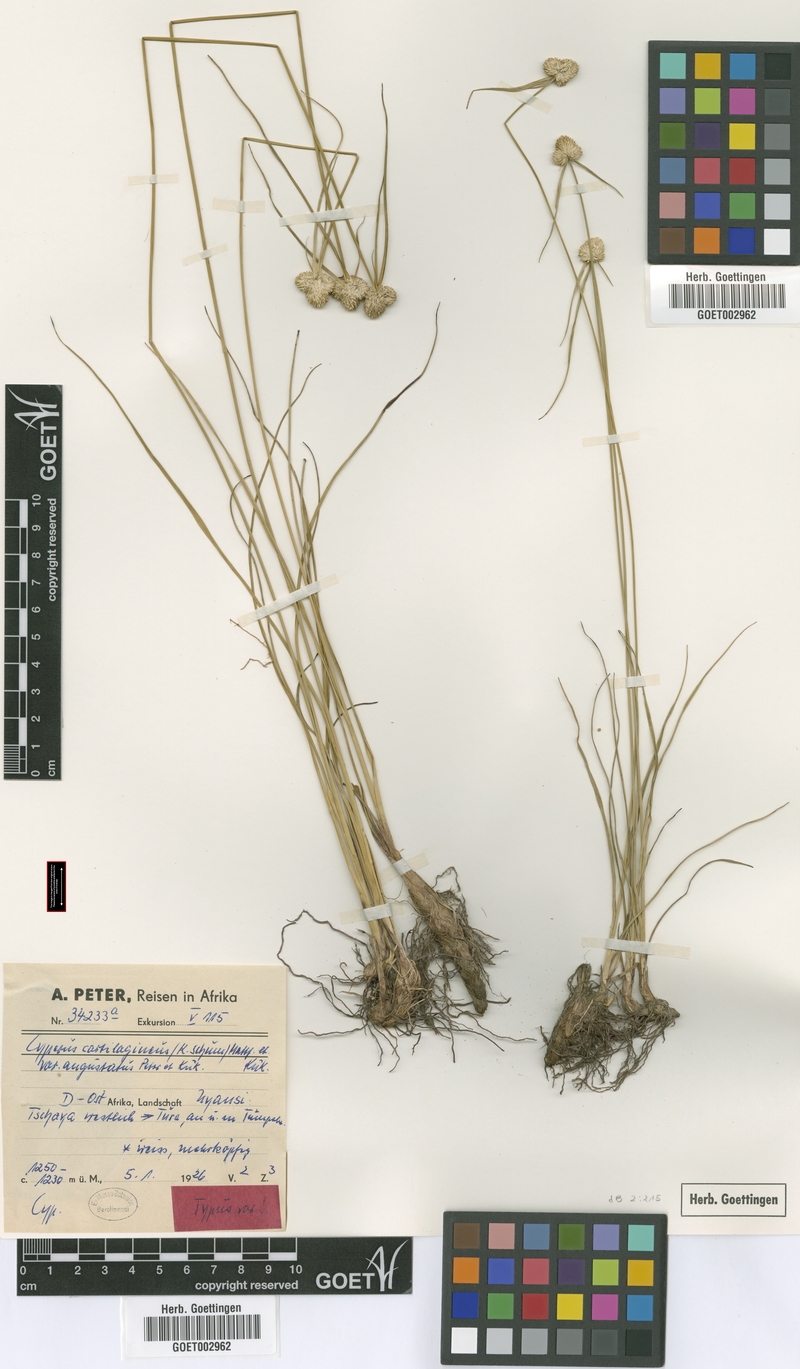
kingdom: Plantae
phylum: Tracheophyta
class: Liliopsida
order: Poales
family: Cyperaceae
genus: Cyperus
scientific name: Cyperus comosipes
